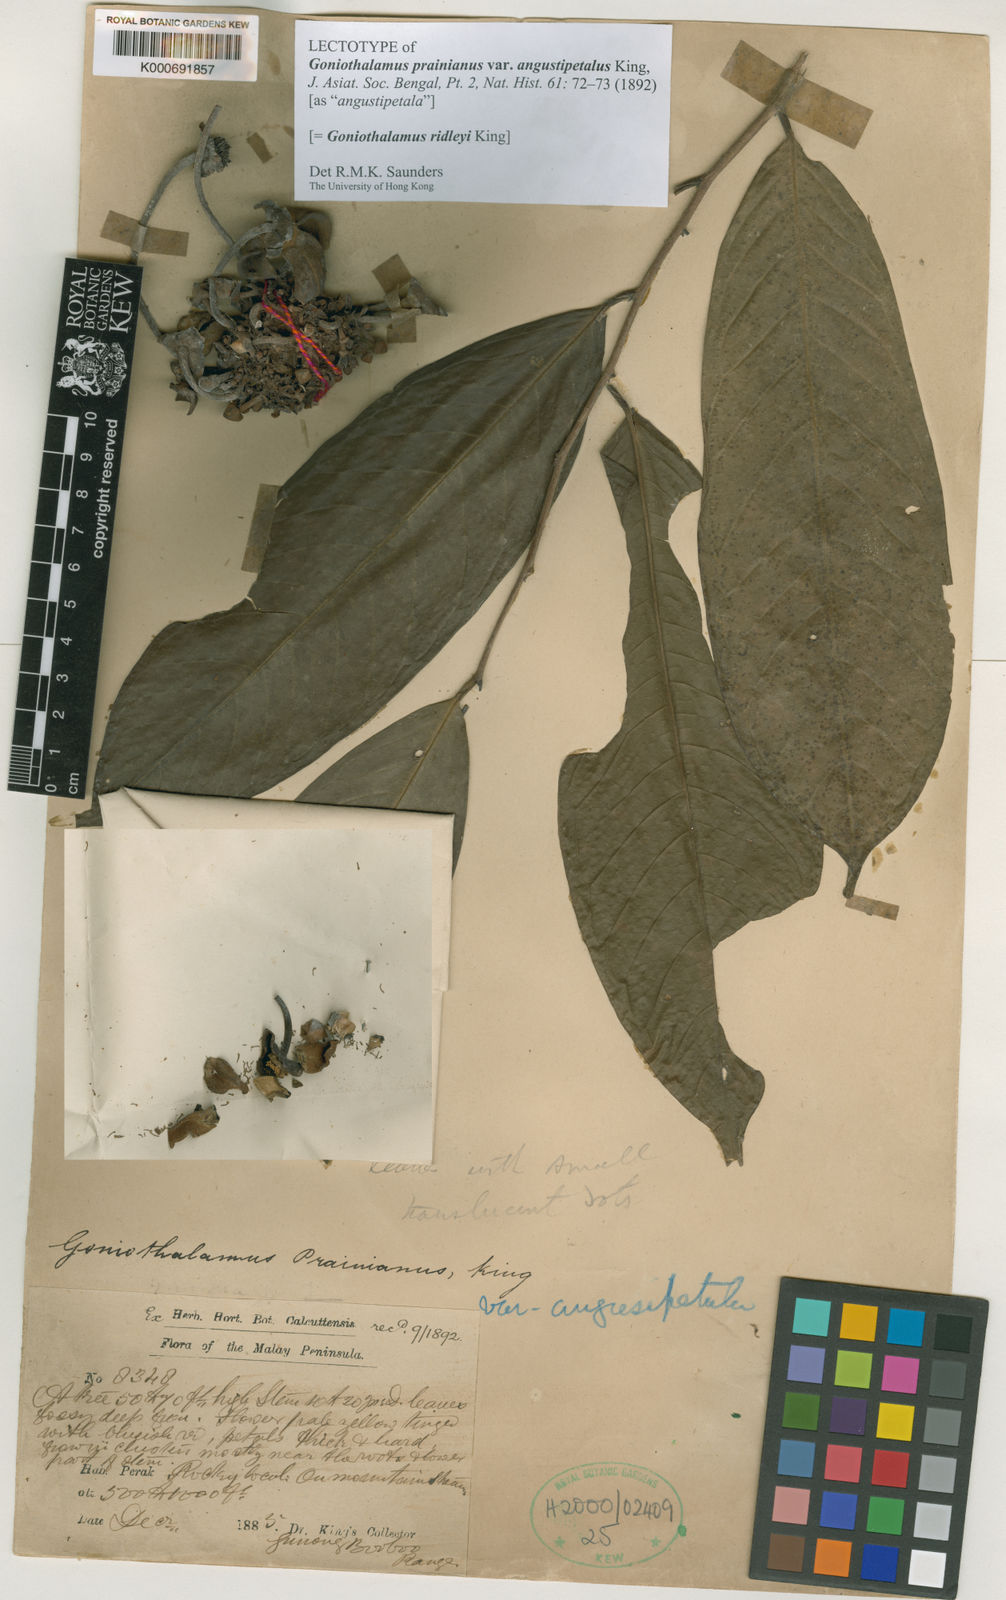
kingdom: Plantae
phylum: Tracheophyta
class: Magnoliopsida
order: Magnoliales
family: Annonaceae
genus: Goniothalamus
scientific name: Goniothalamus ridleyi
